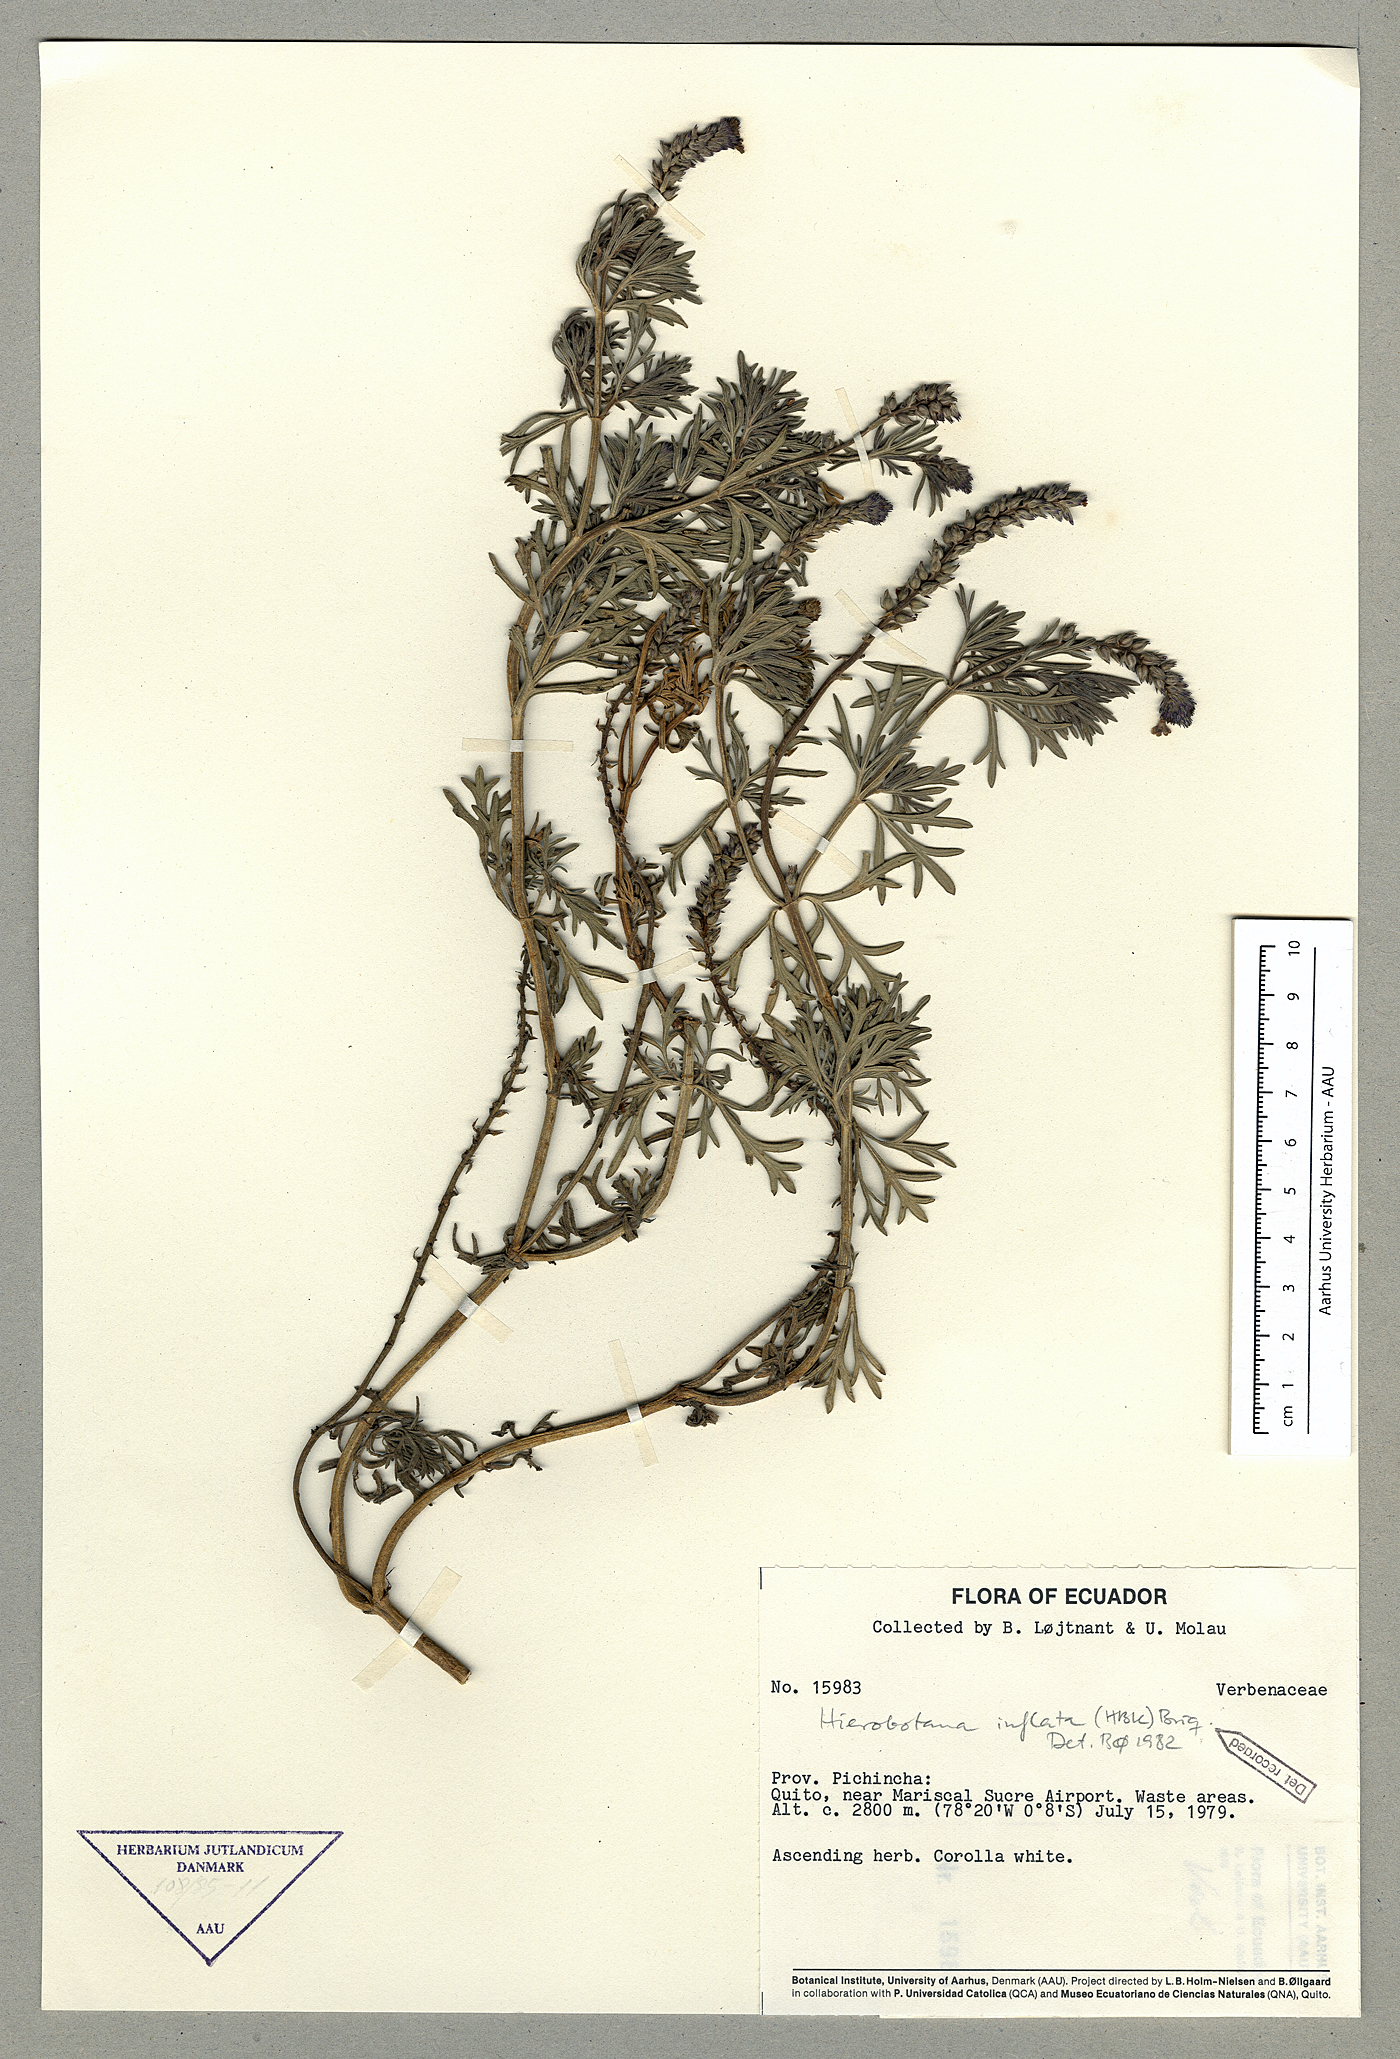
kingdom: Plantae
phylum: Tracheophyta
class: Magnoliopsida
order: Lamiales
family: Verbenaceae
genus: Hierobotana
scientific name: Hierobotana inflata
